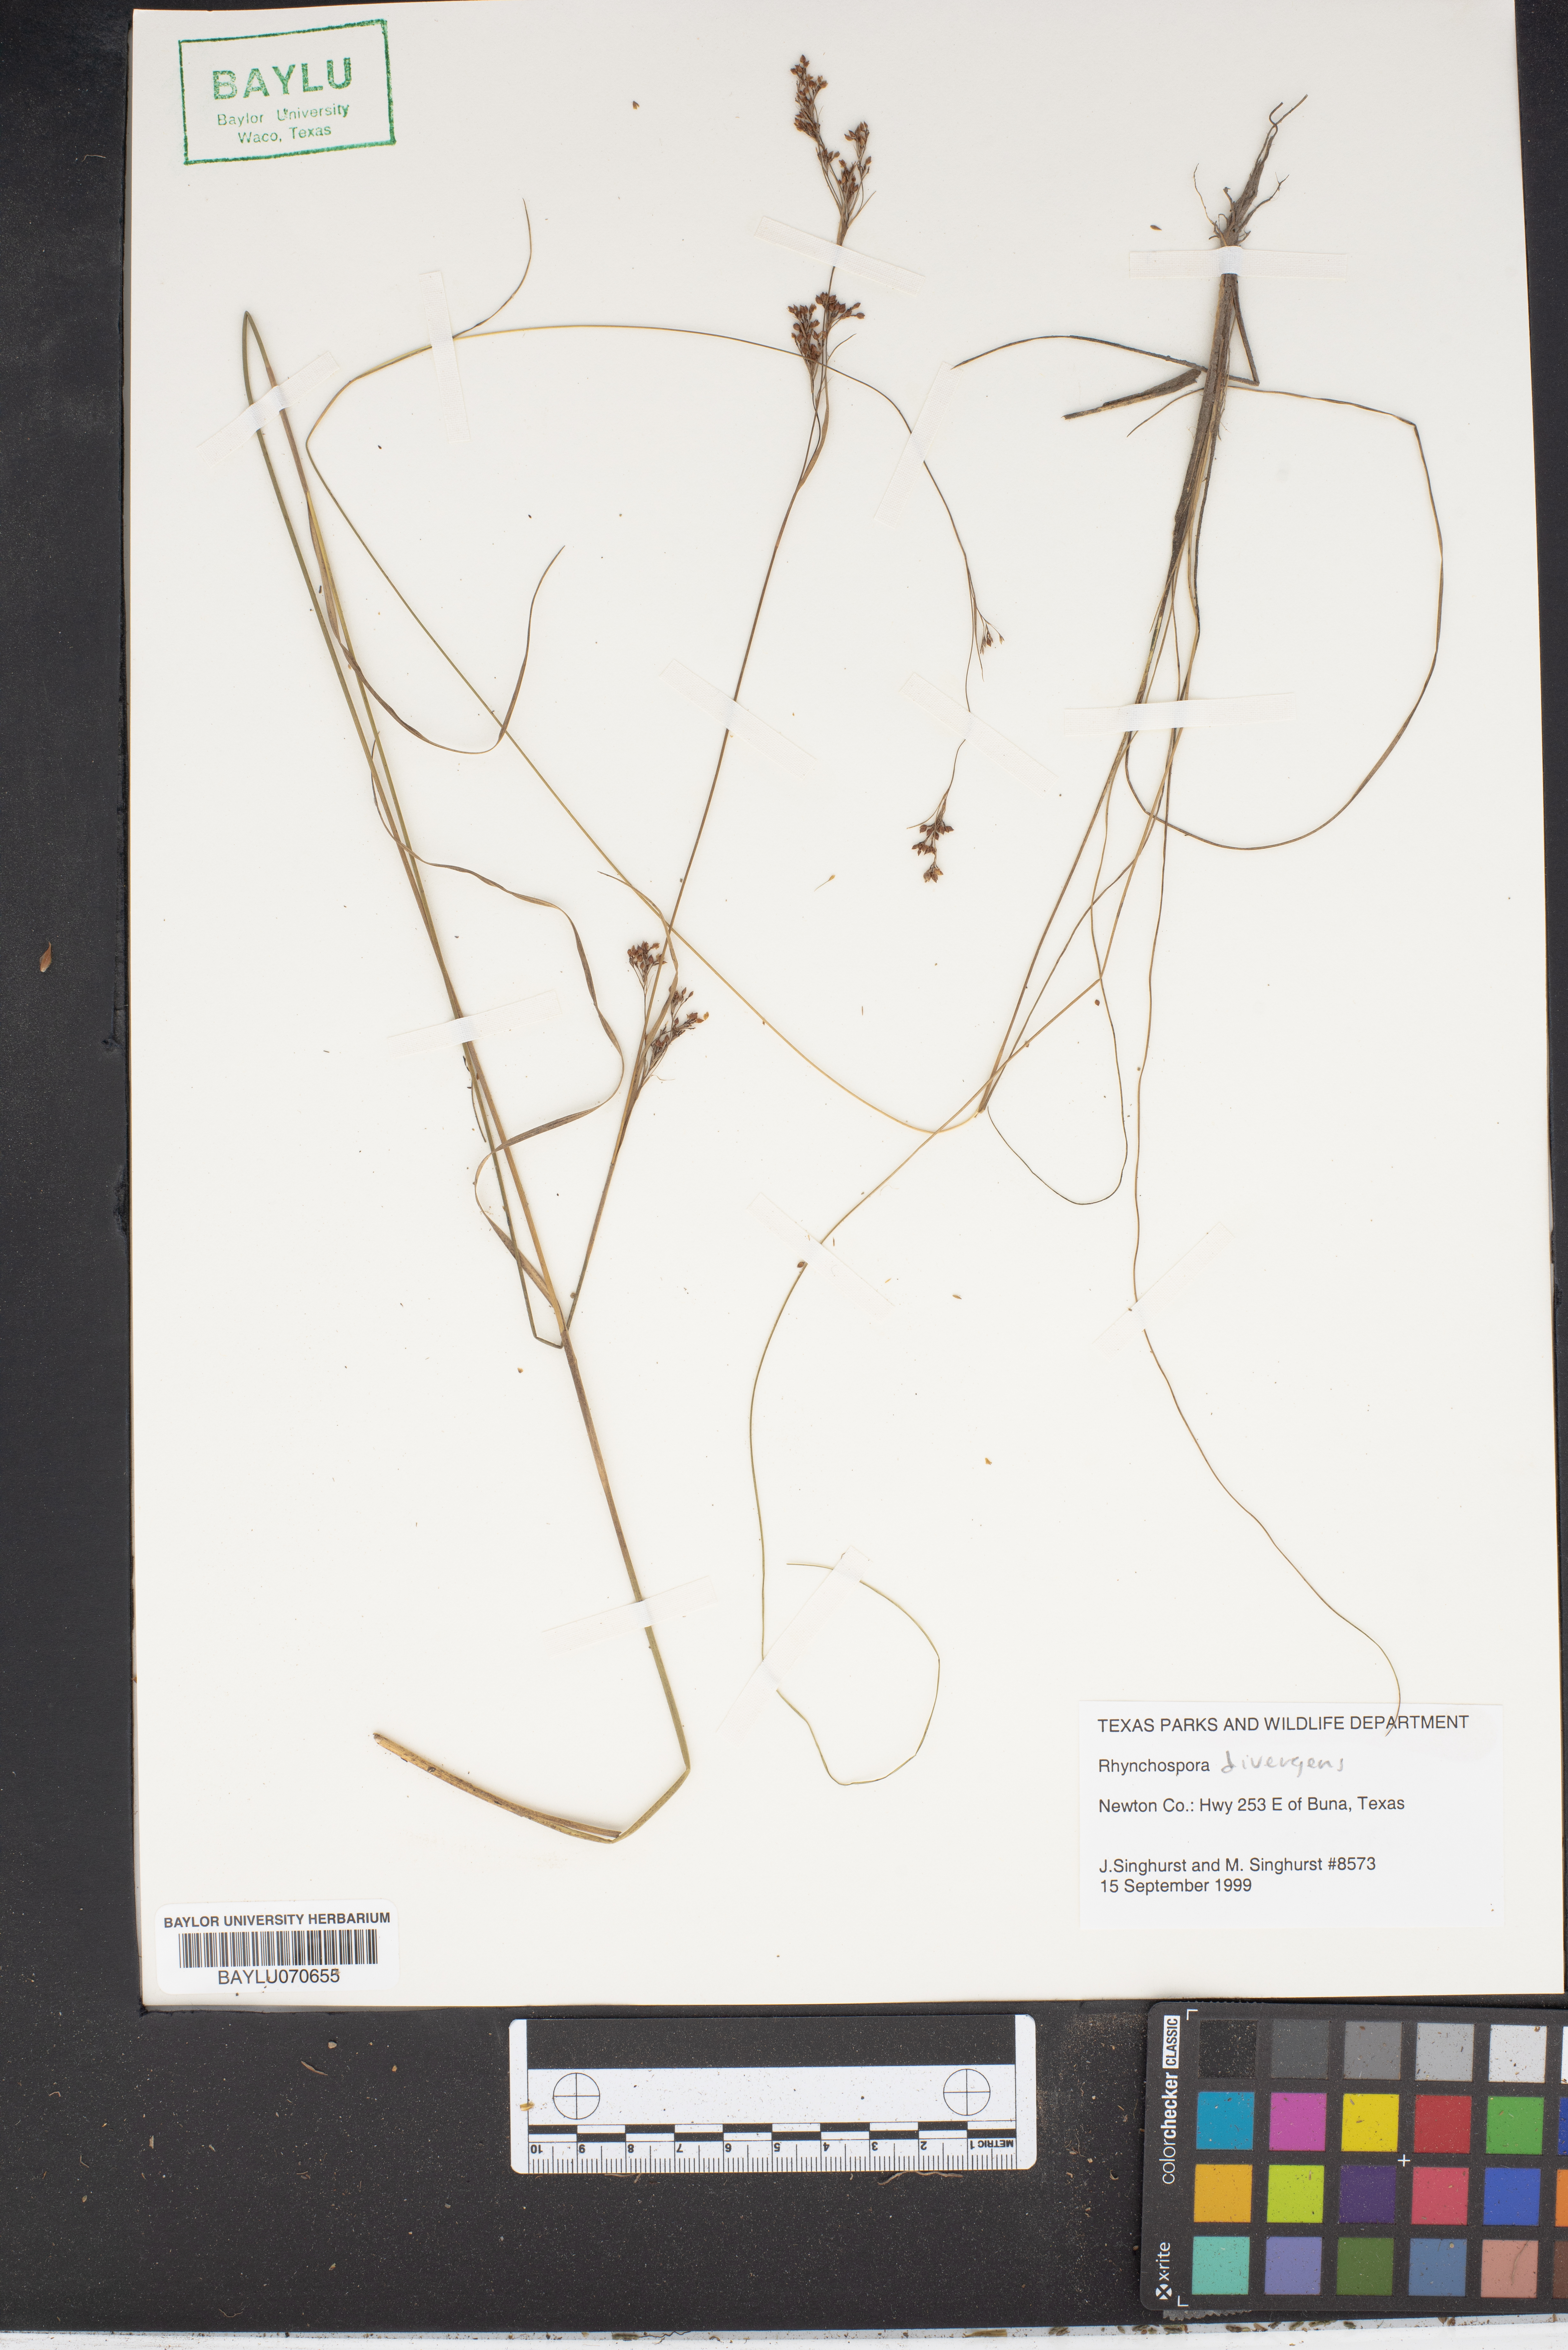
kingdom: Plantae
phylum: Tracheophyta
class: Liliopsida
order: Poales
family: Cyperaceae
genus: Rhynchospora
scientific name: Rhynchospora divergens
